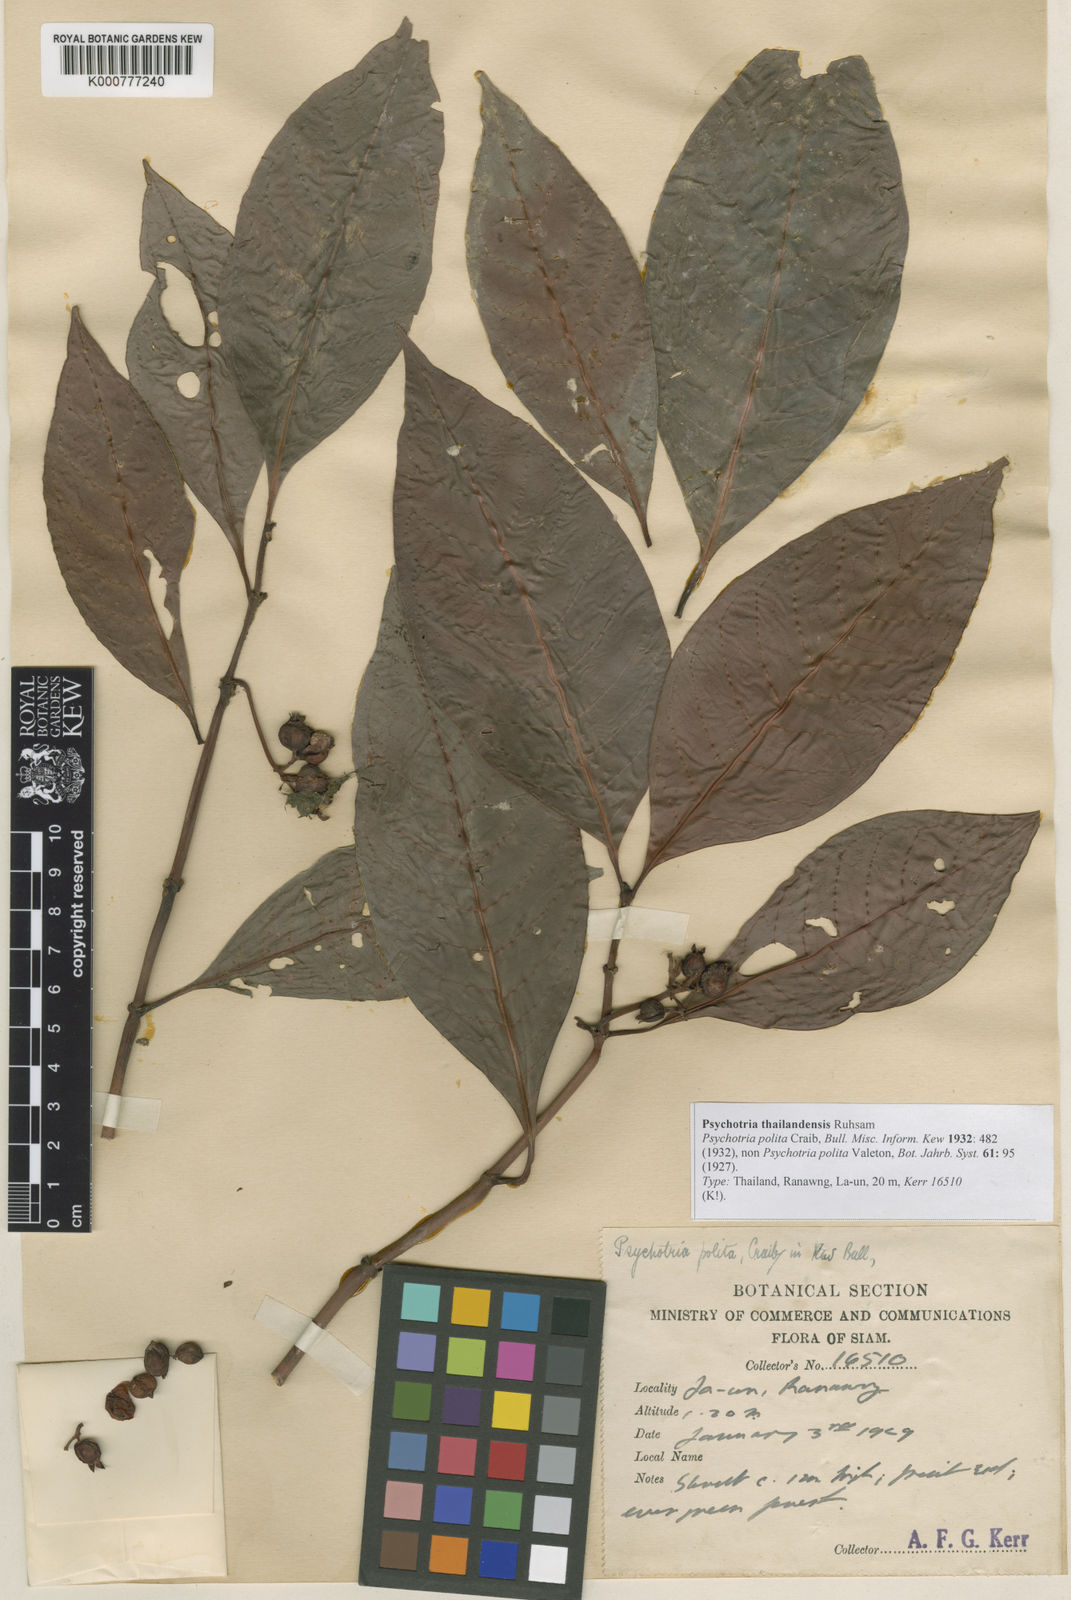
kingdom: Plantae
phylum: Tracheophyta
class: Magnoliopsida
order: Gentianales
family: Rubiaceae
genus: Psychotria
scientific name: Psychotria thailandensis
